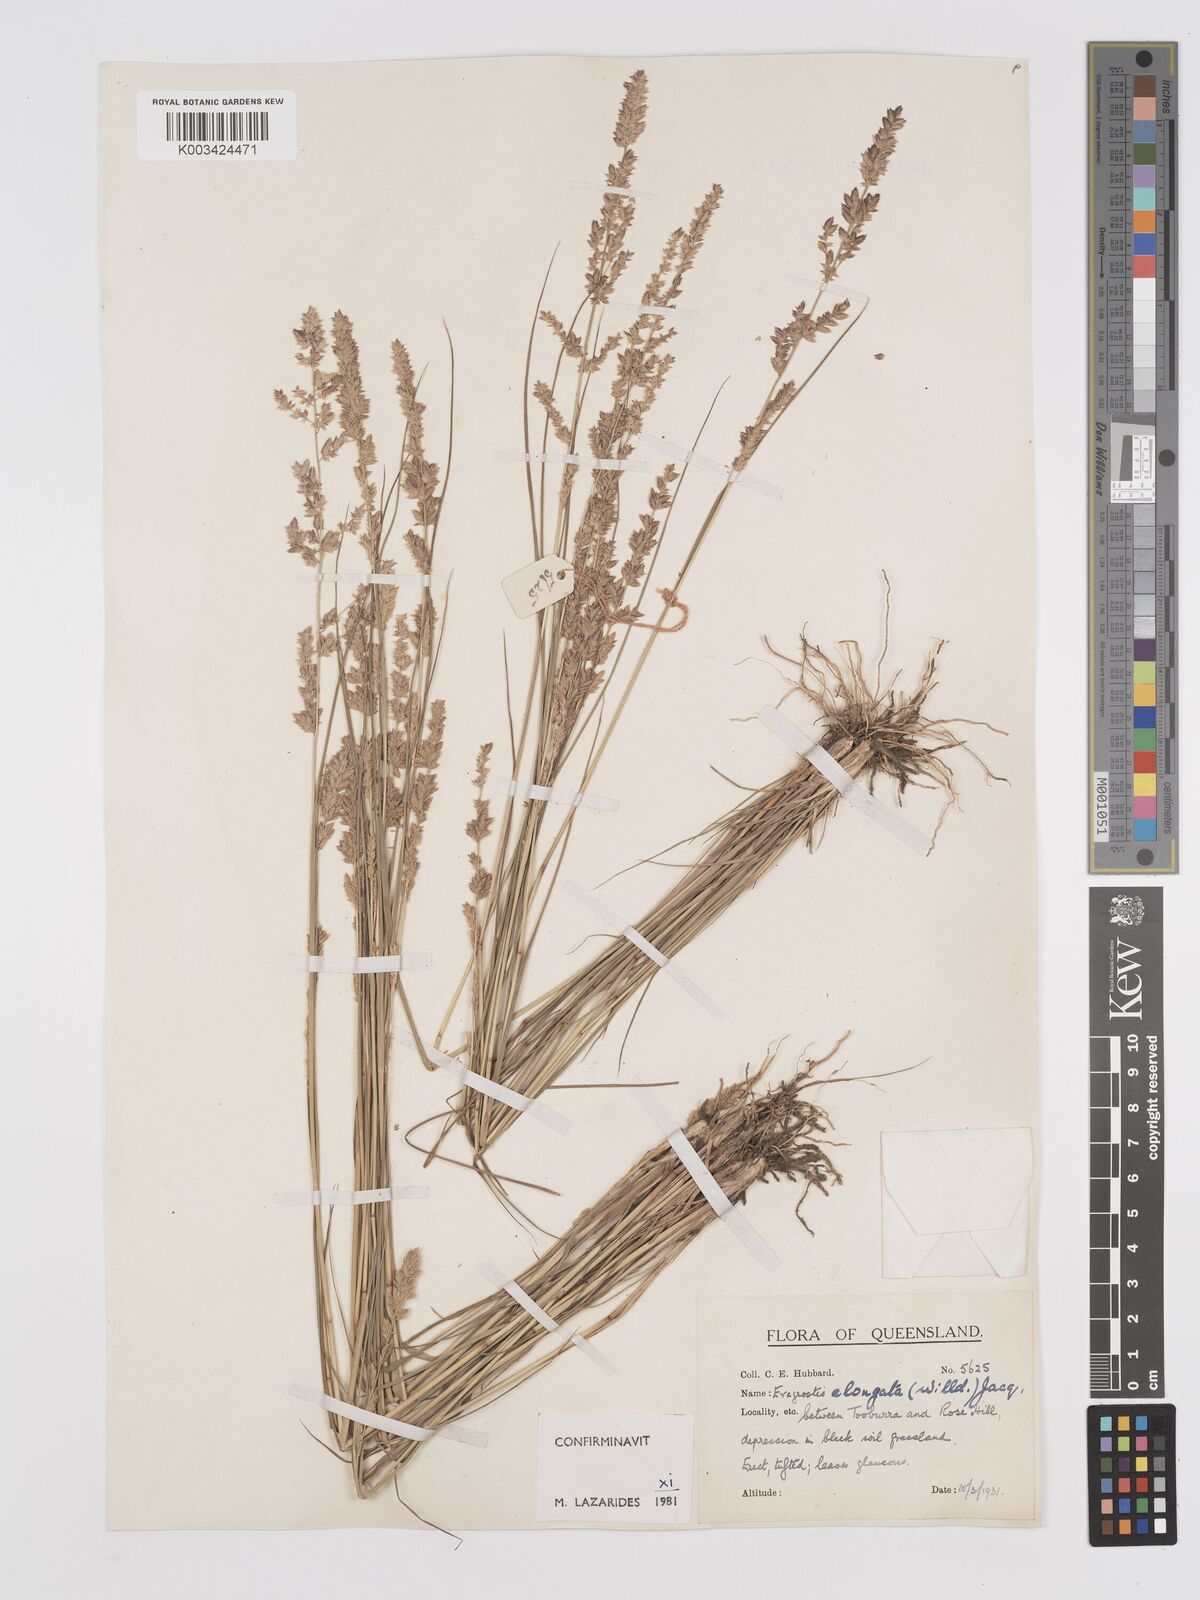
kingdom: Plantae
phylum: Tracheophyta
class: Liliopsida
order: Poales
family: Poaceae
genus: Eragrostis
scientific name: Eragrostis elongata
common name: Long lovegrass
